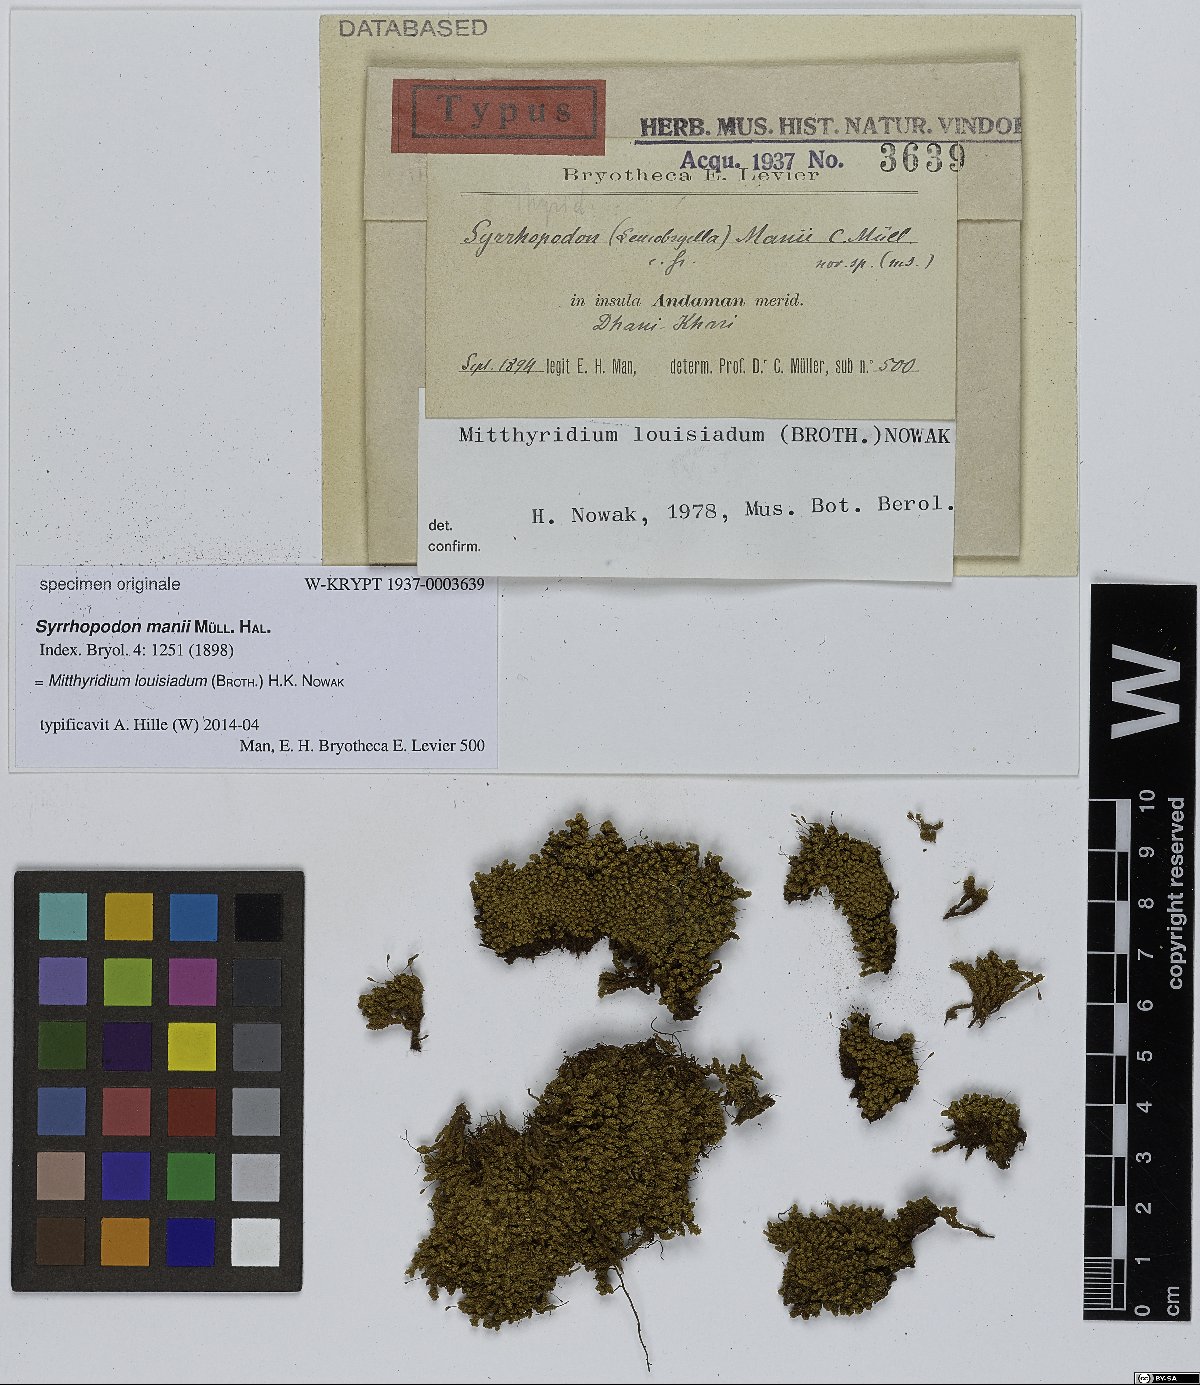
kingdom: Plantae
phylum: Bryophyta
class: Bryopsida
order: Dicranales
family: Calymperaceae
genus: Syrrhopodon
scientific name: Syrrhopodon
